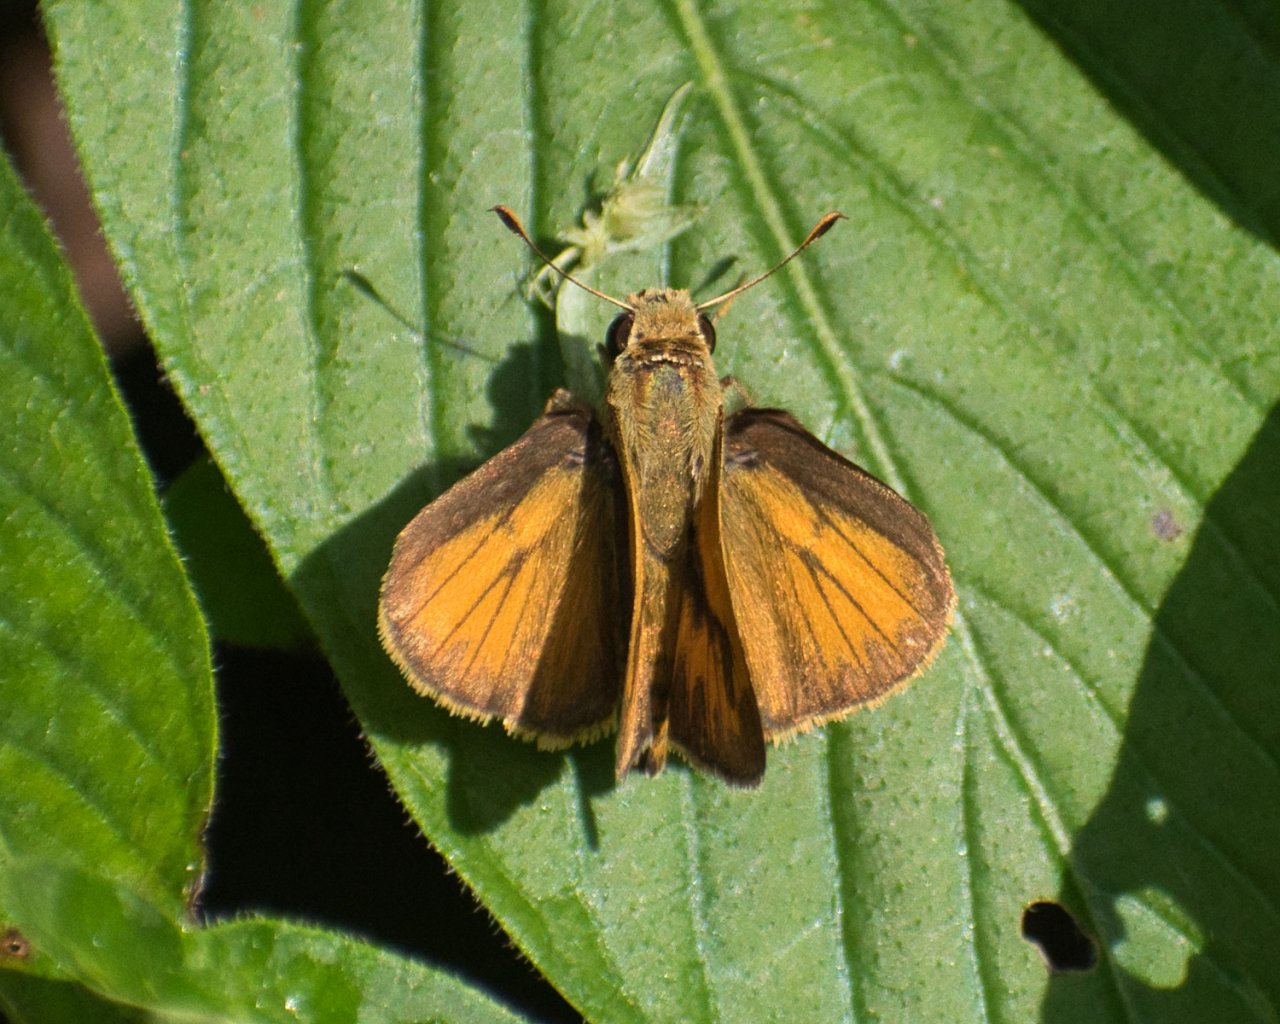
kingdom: Animalia
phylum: Arthropoda
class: Insecta
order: Lepidoptera
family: Hesperiidae
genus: Polites
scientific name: Polites vibex
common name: Whirlabout
